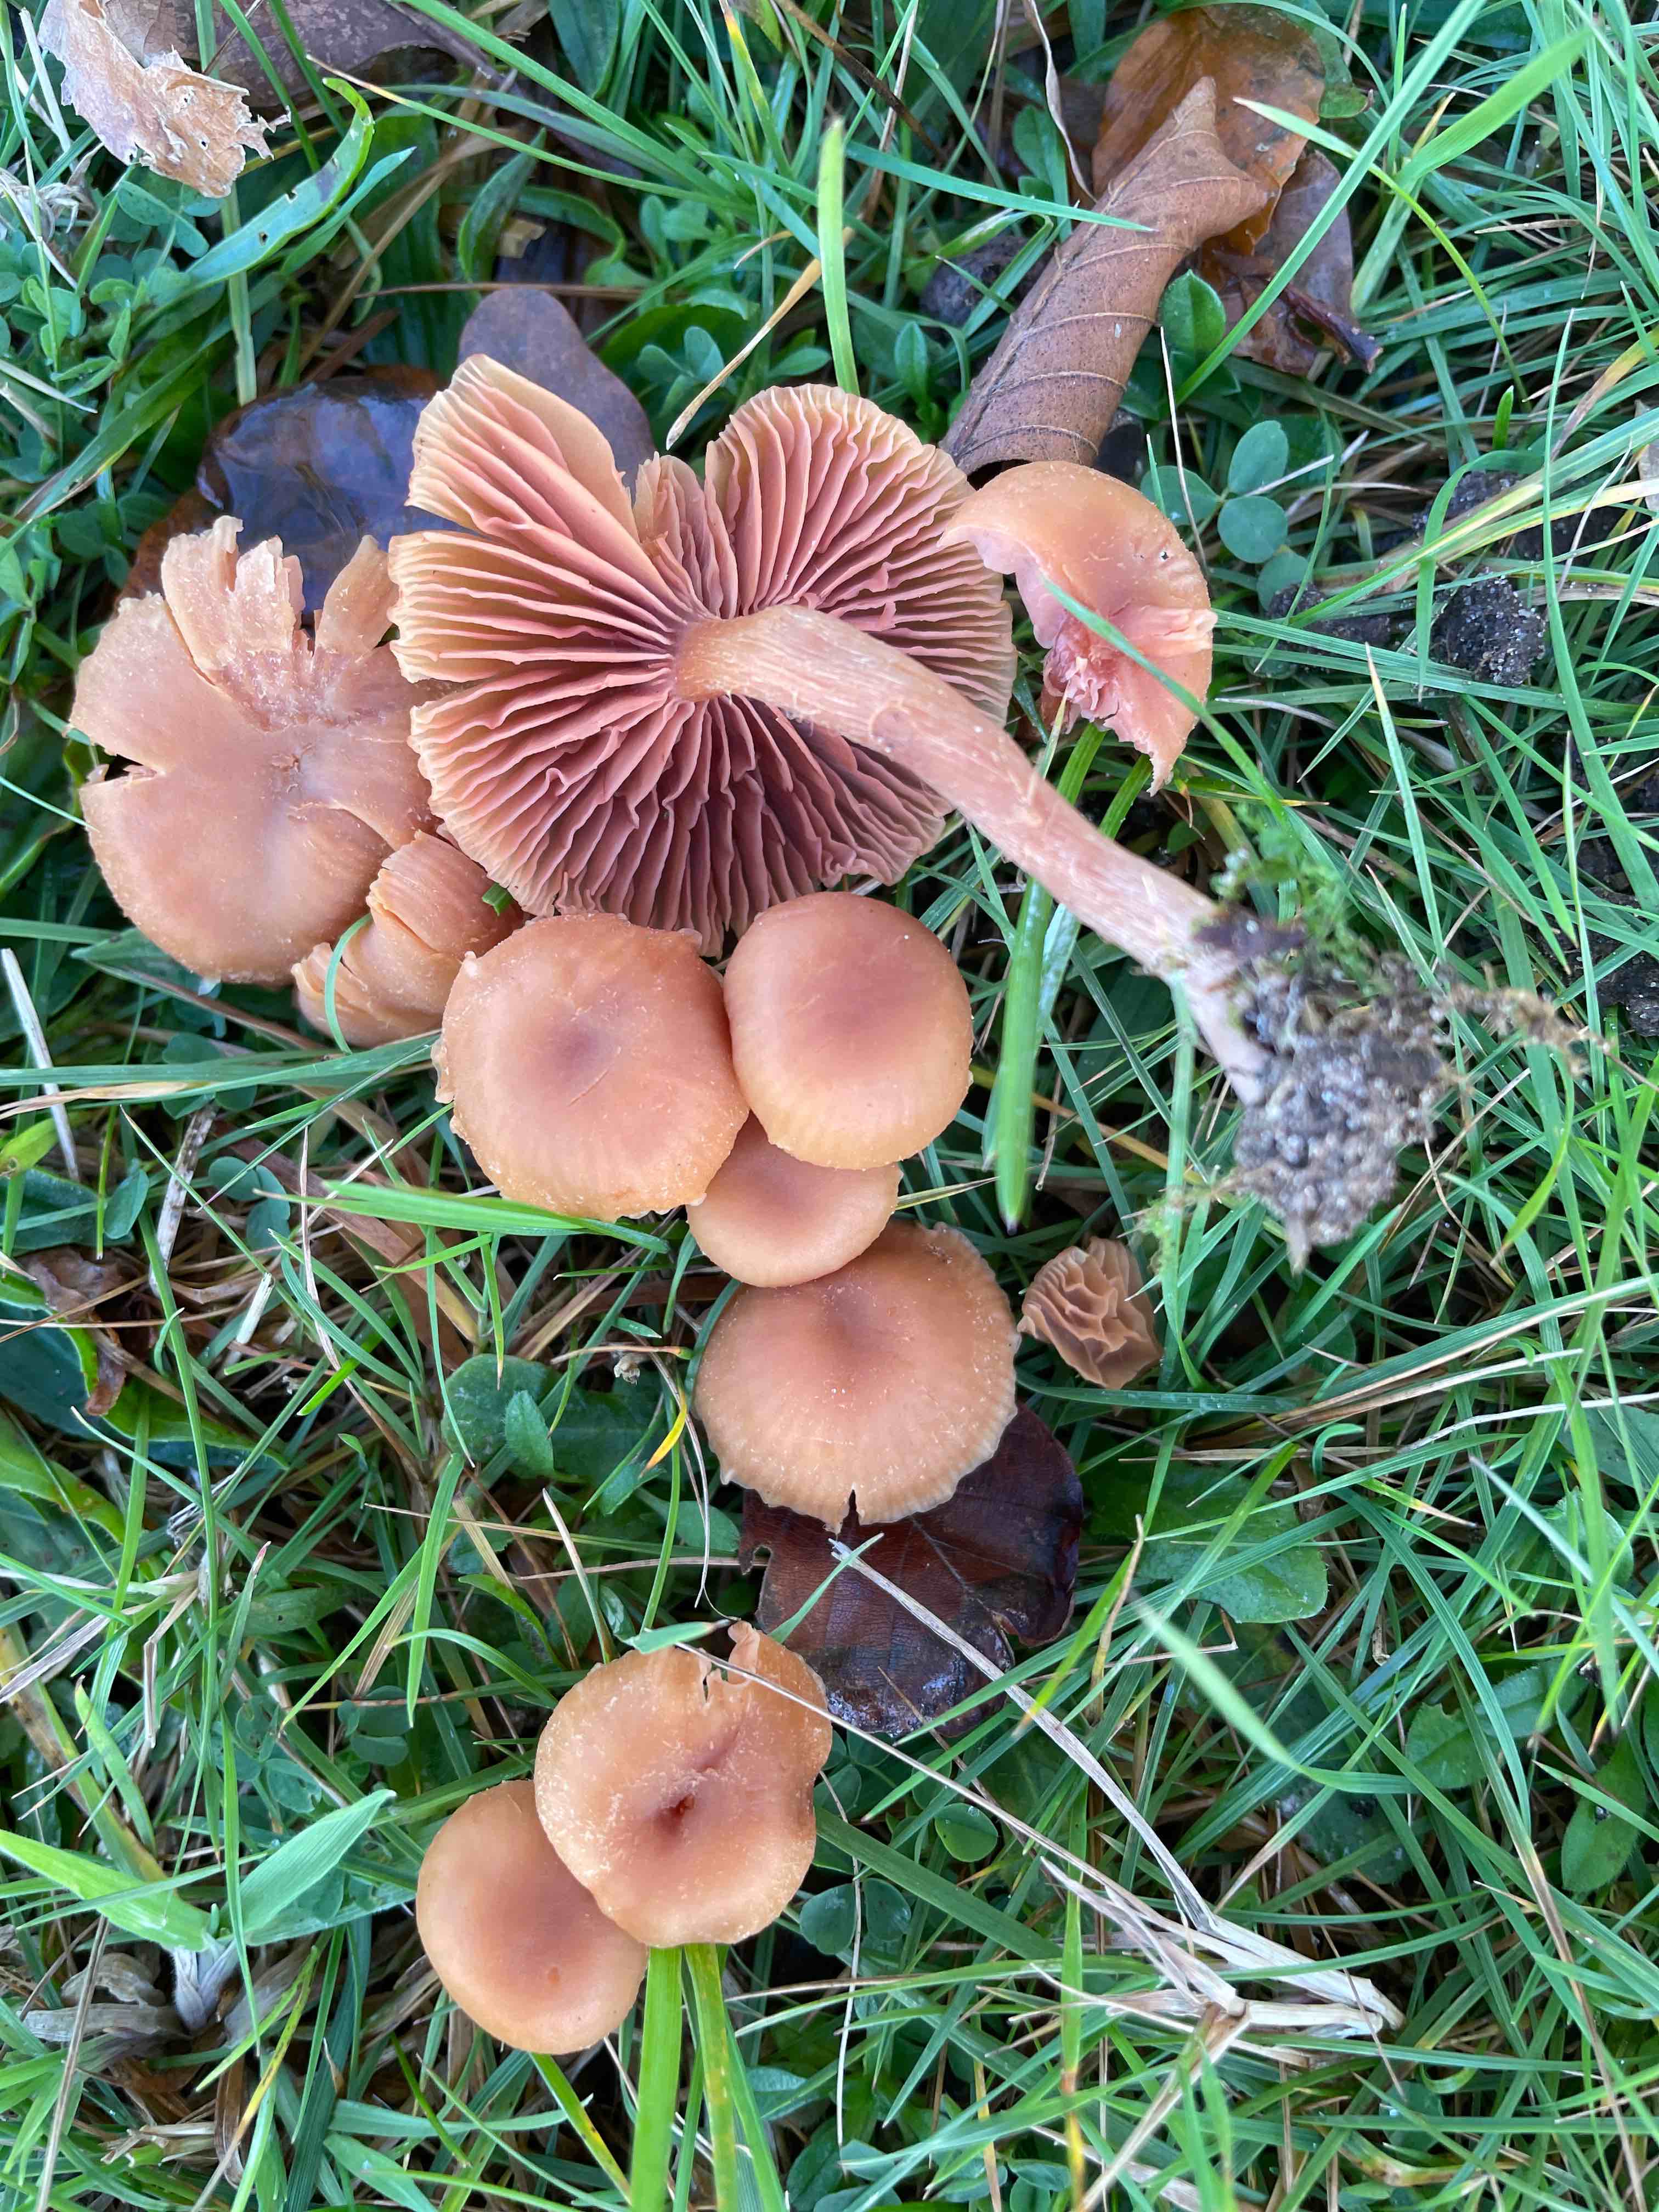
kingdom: Fungi
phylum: Basidiomycota
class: Agaricomycetes
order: Agaricales
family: Hydnangiaceae
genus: Laccaria
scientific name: Laccaria laccata
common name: rød ametysthat
